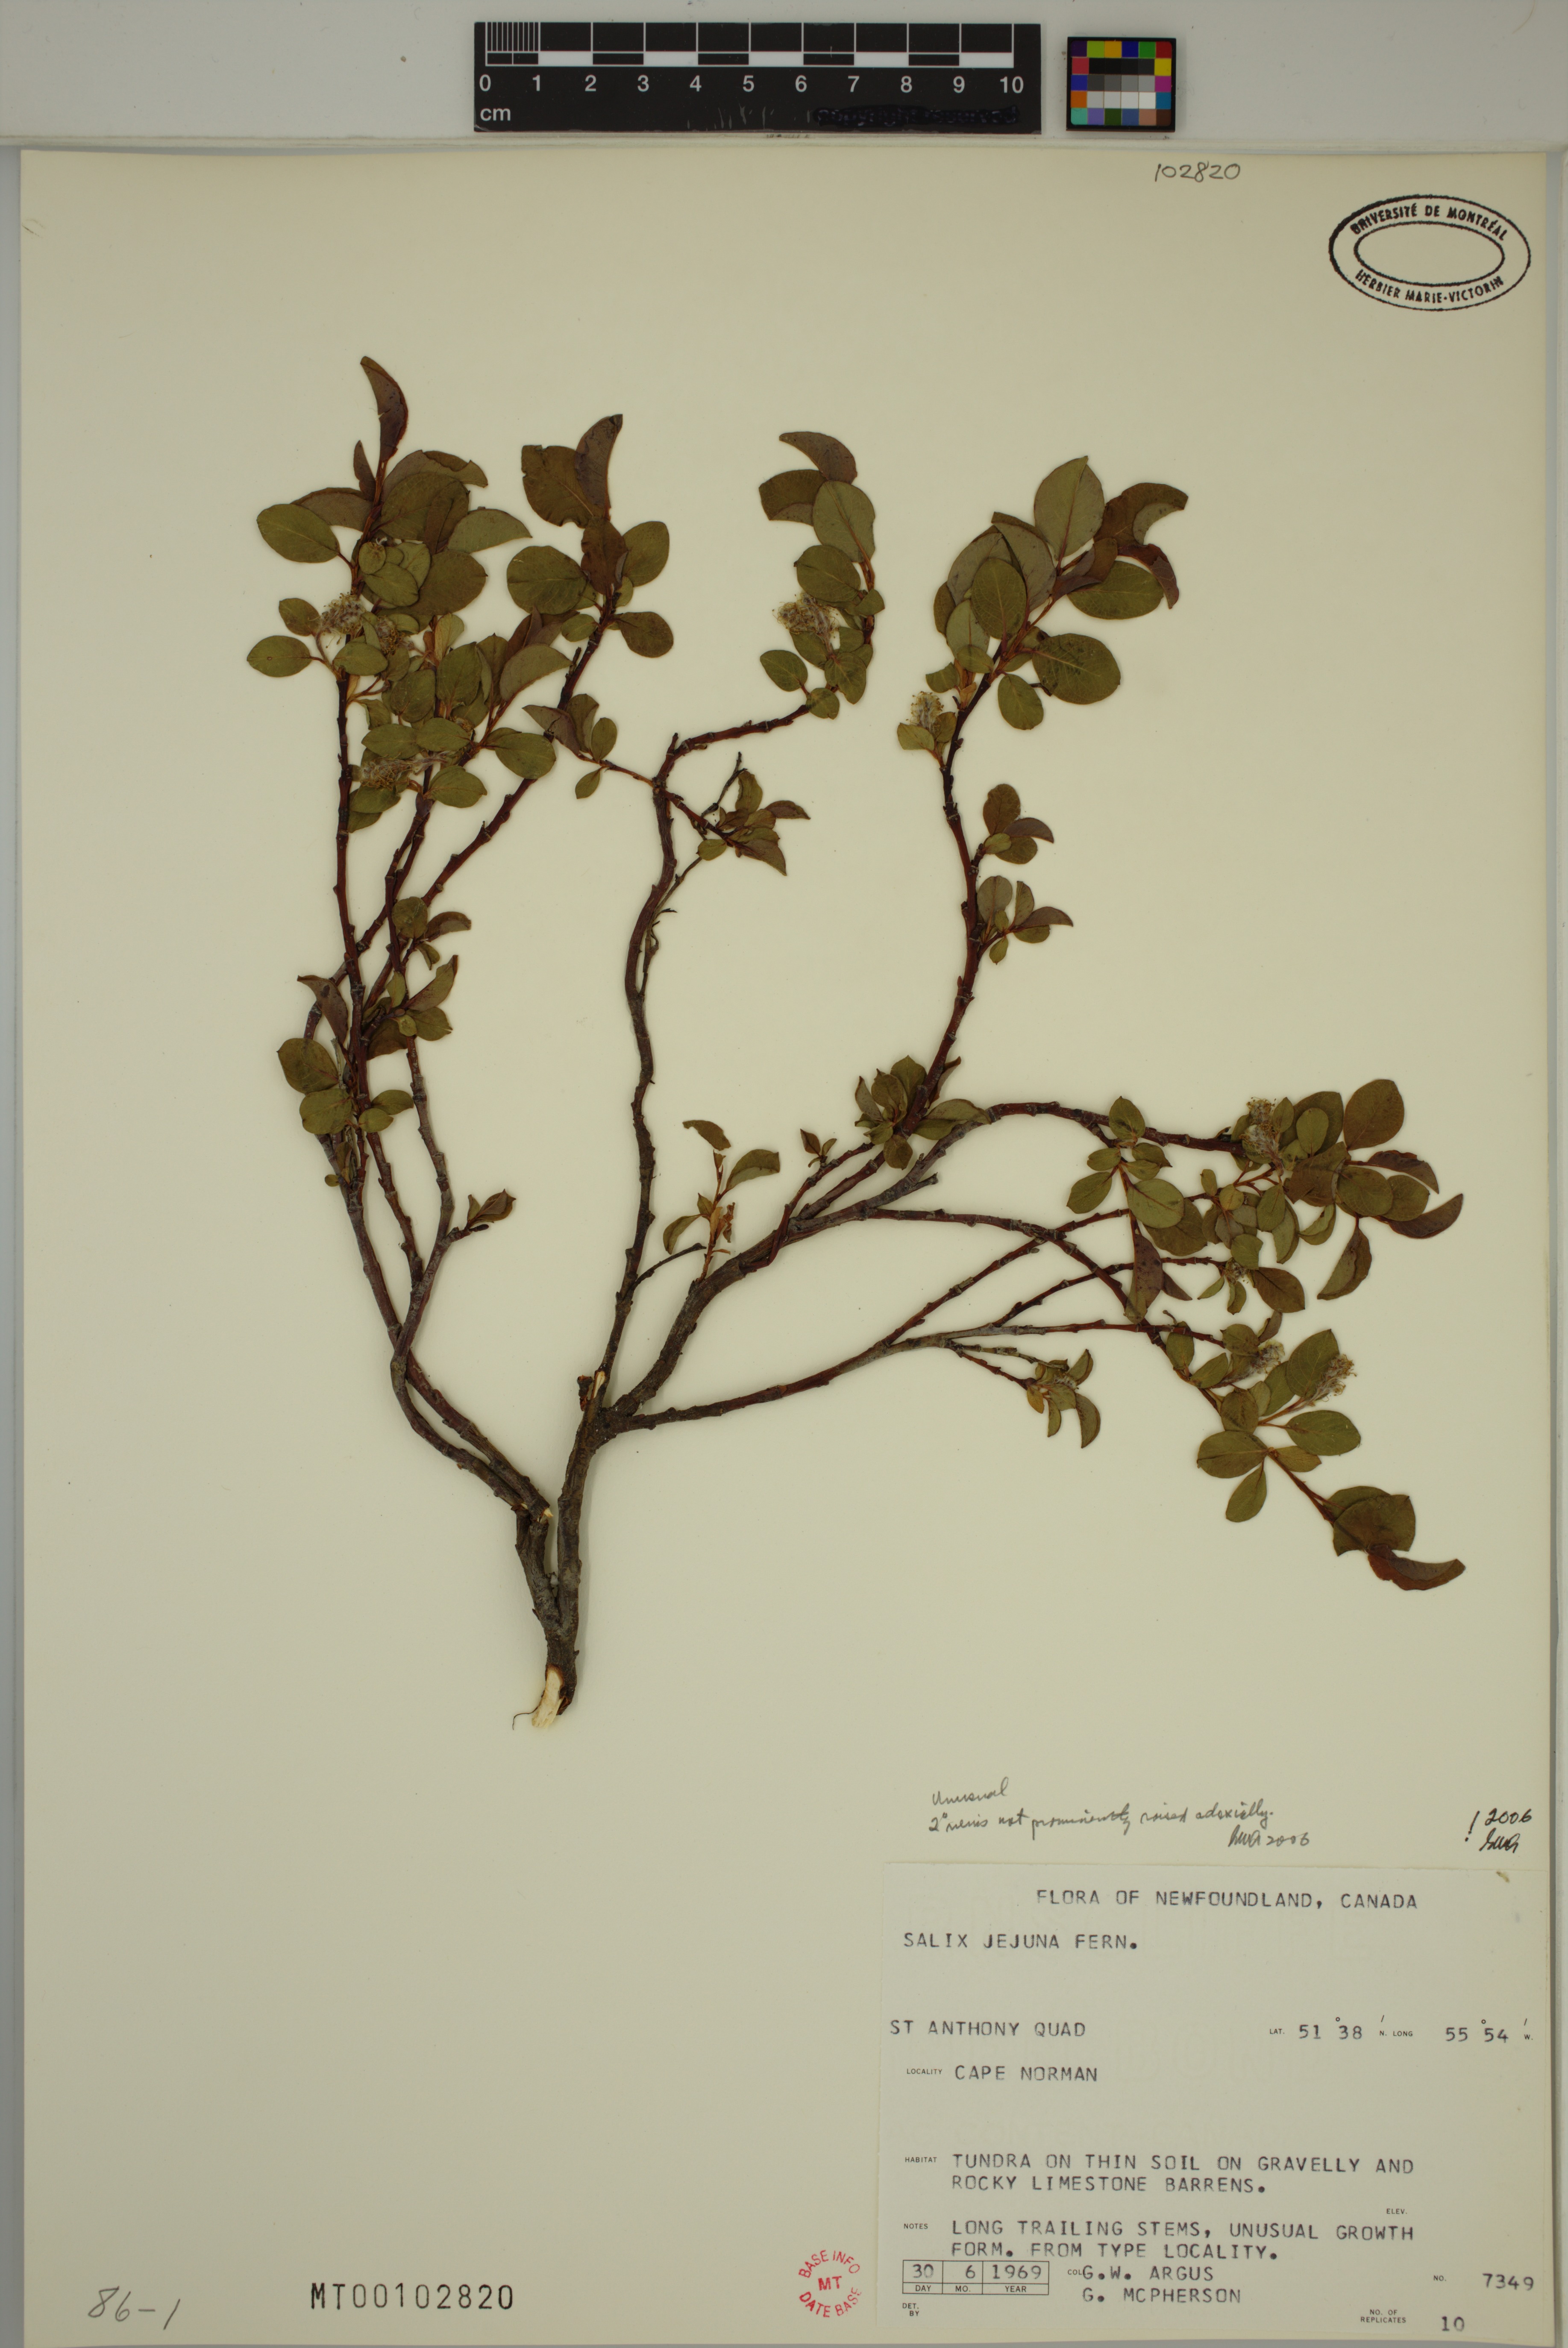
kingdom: Plantae
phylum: Tracheophyta
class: Magnoliopsida
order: Malpighiales
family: Salicaceae
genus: Salix
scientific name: Salix jejuna
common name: Belle isle dwarf willow
